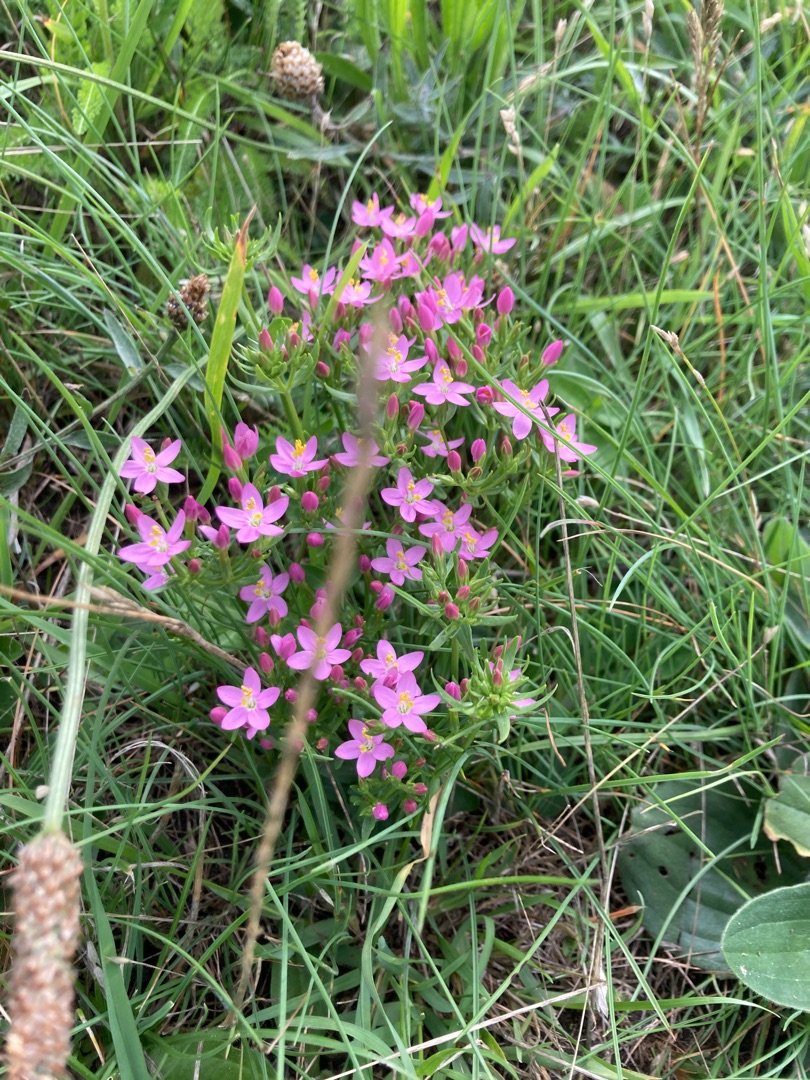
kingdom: Plantae
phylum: Tracheophyta
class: Magnoliopsida
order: Gentianales
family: Gentianaceae
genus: Centaurium
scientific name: Centaurium
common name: Tusindgyldenslægten
